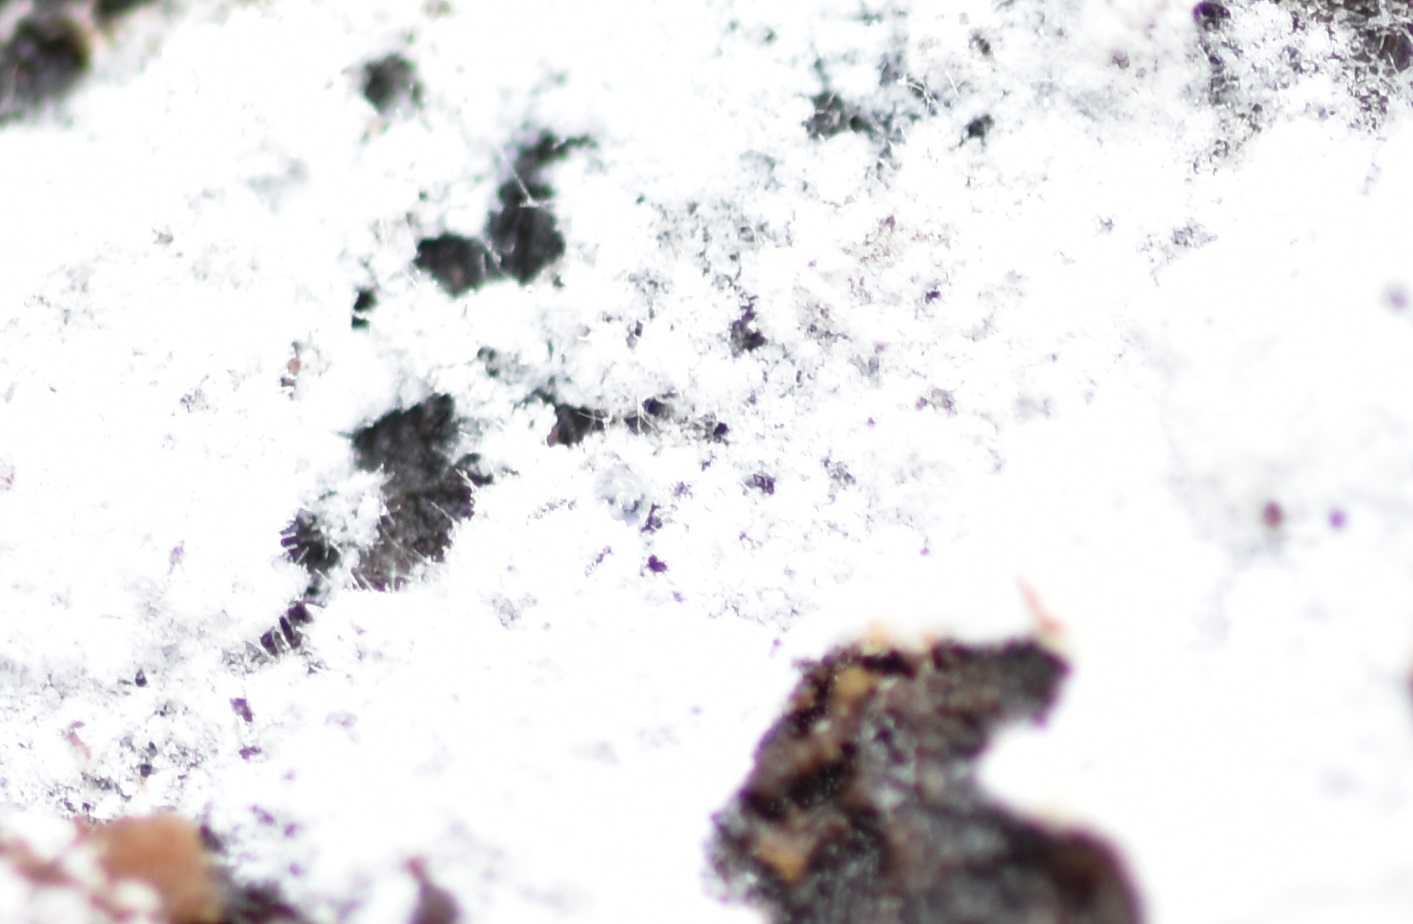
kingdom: Fungi
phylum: Basidiomycota
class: Agaricomycetes
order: Polyporales
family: Meruliaceae
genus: Gyrophanopsis
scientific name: Gyrophanopsis polonensis
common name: langhåret kalkskind
